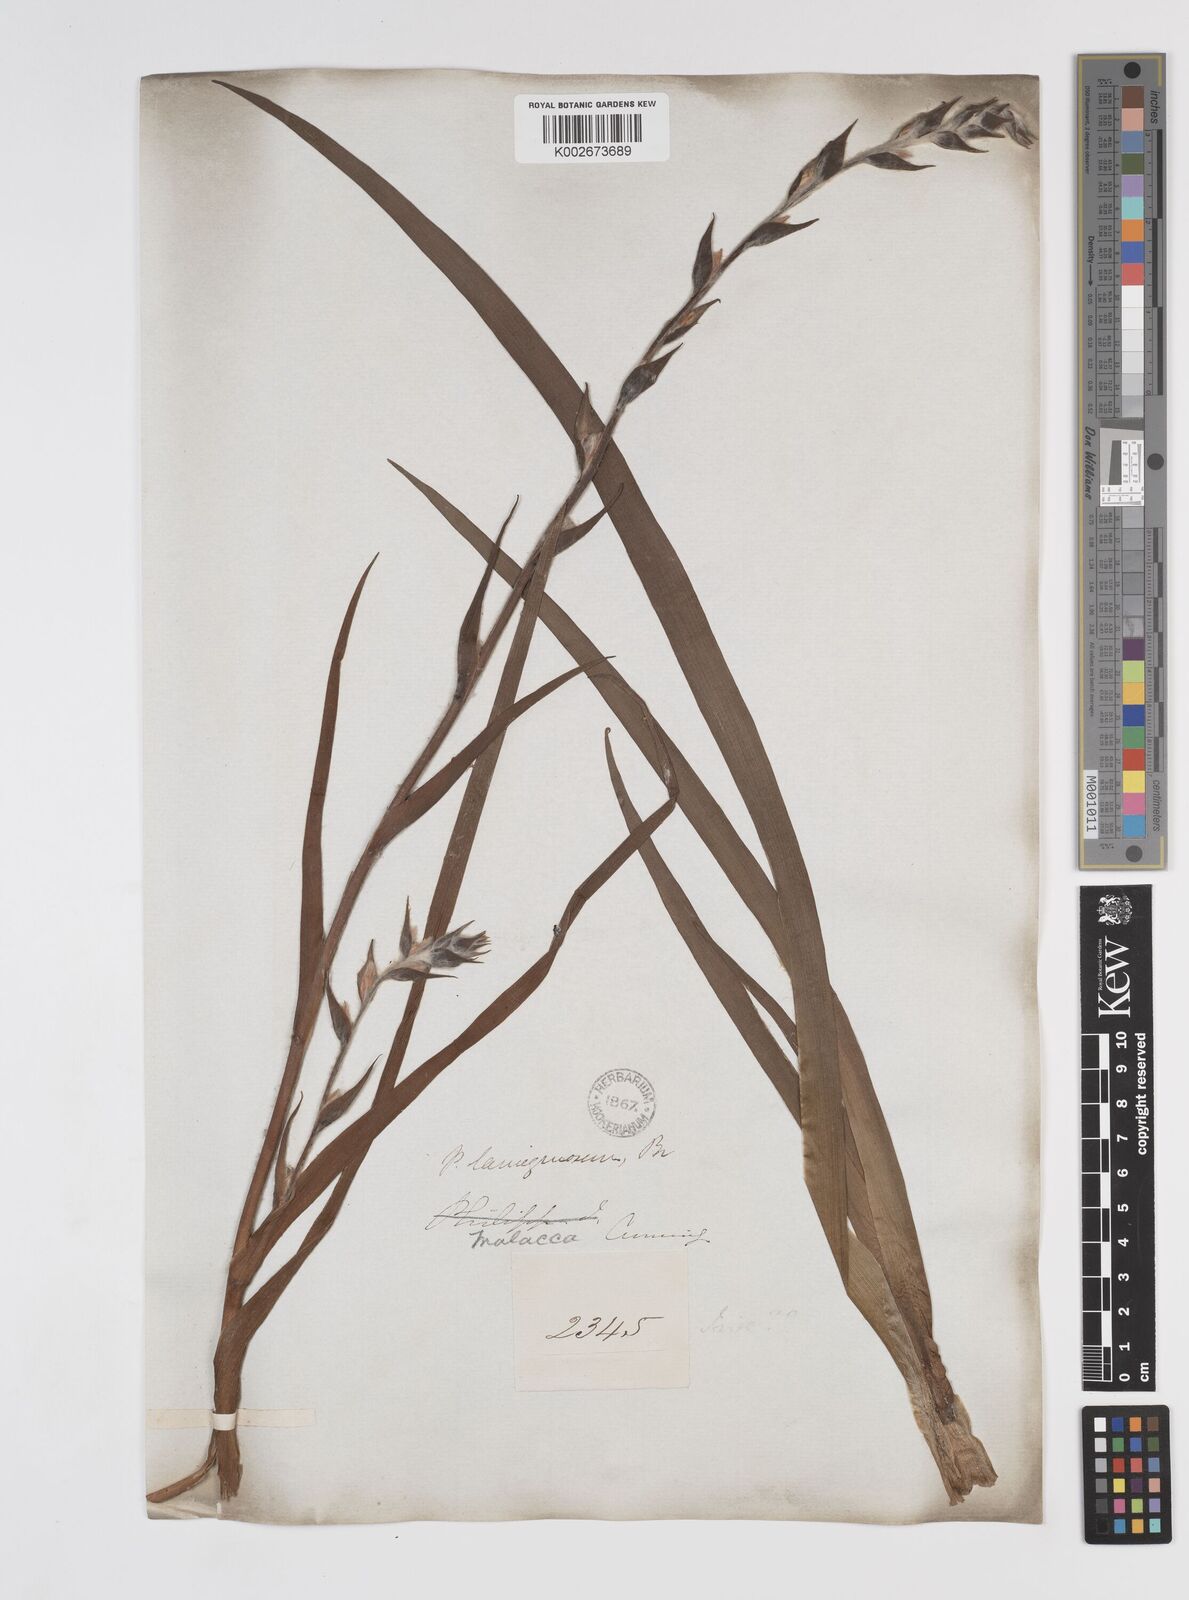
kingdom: Plantae
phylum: Tracheophyta
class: Liliopsida
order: Commelinales
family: Philydraceae
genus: Philydrum
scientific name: Philydrum lanuginosum
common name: Woolly frog's mouth
